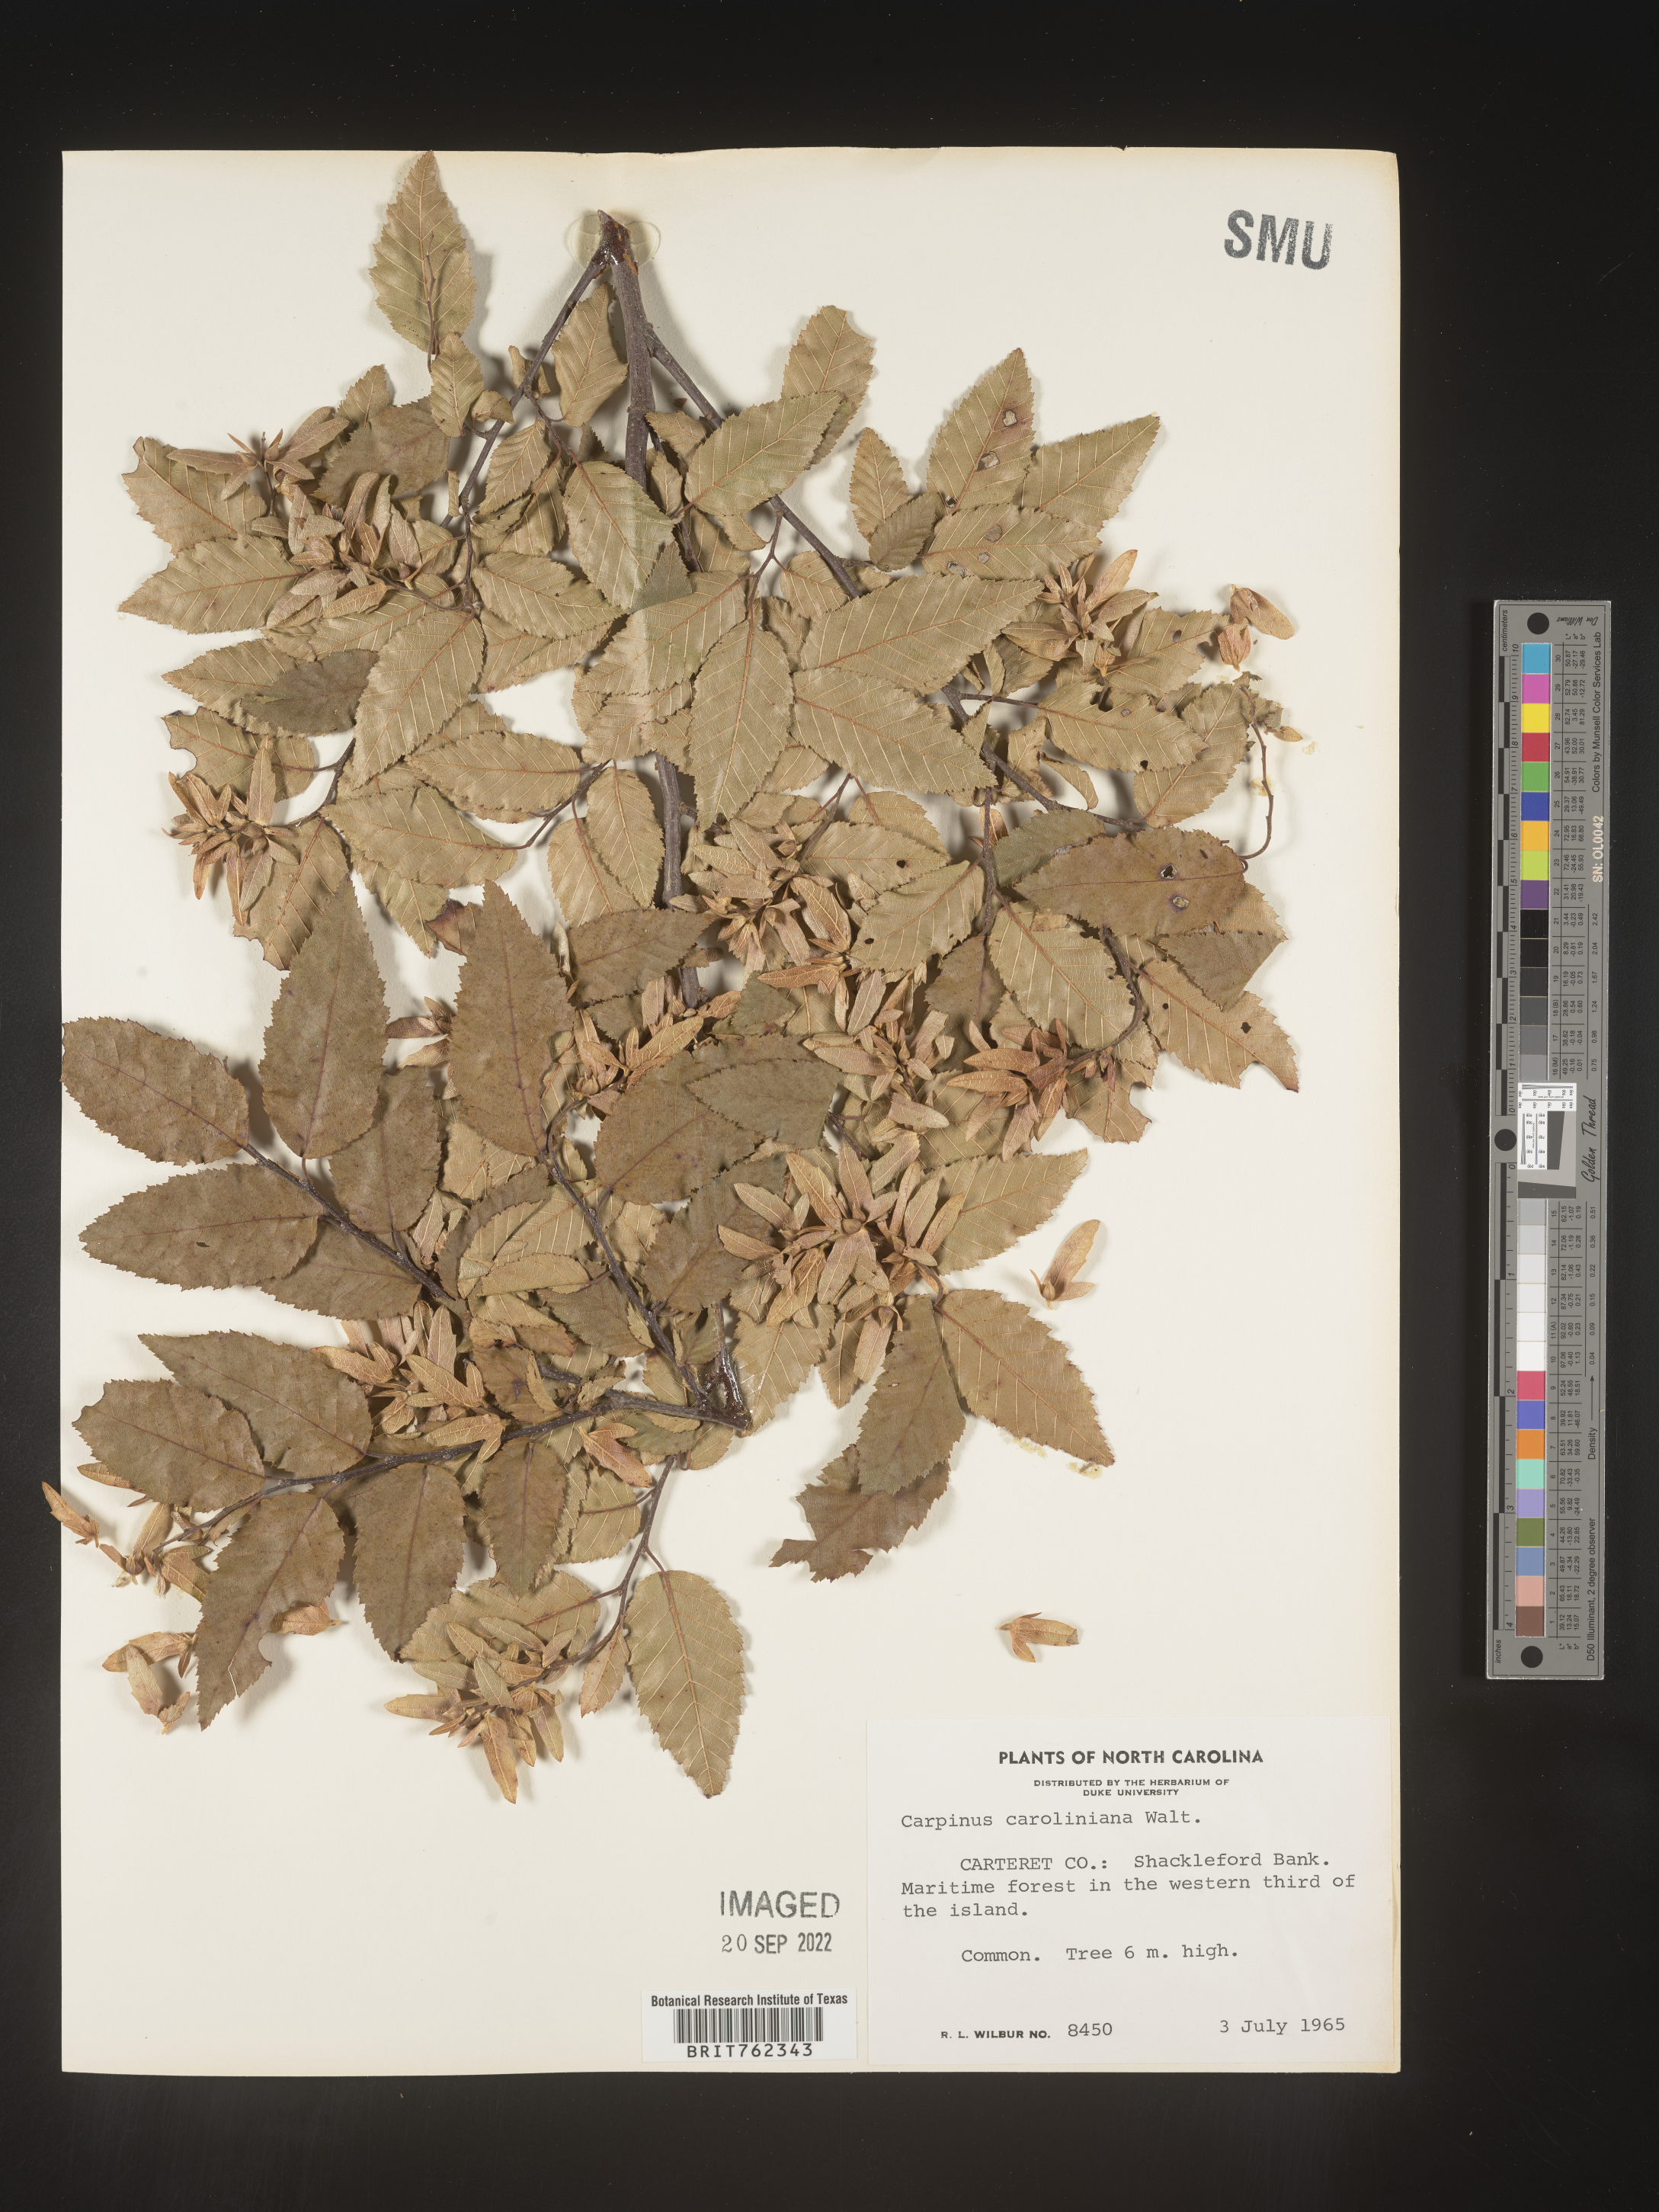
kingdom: Plantae
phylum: Tracheophyta
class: Magnoliopsida
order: Fagales
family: Betulaceae
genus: Carpinus
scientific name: Carpinus caroliniana
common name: American hornbeam
